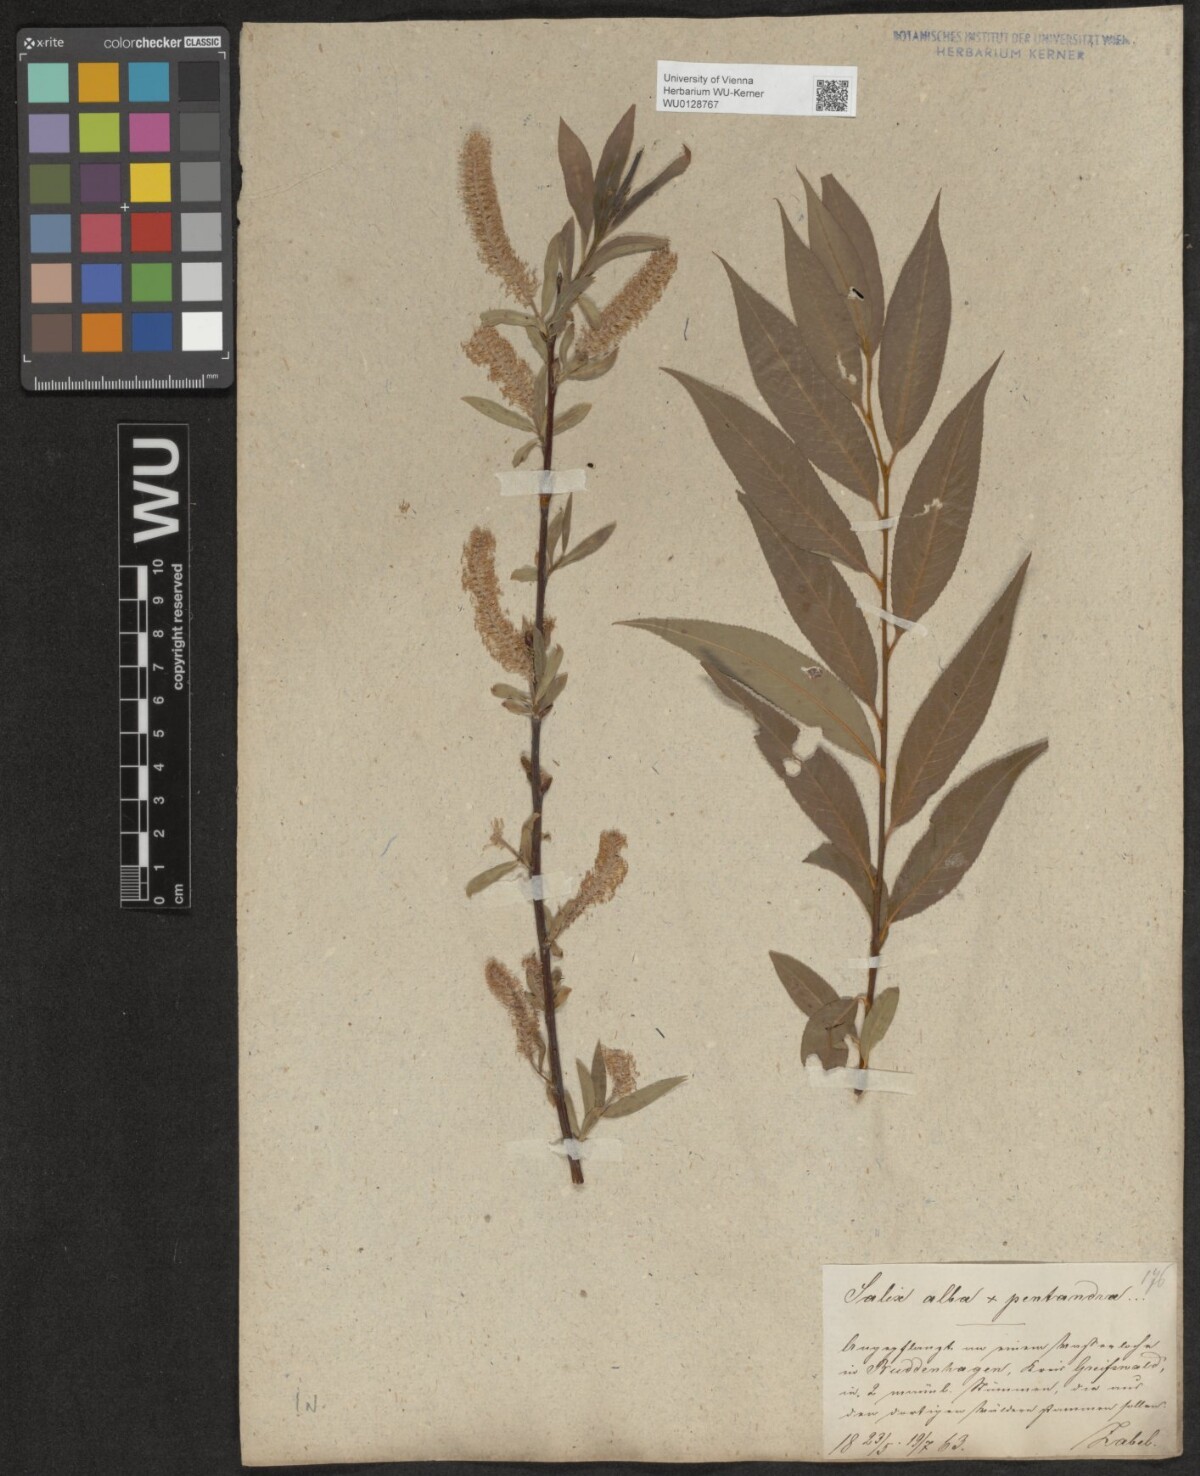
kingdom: Plantae
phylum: Tracheophyta
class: Magnoliopsida
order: Malpighiales
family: Salicaceae
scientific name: Salicaceae
